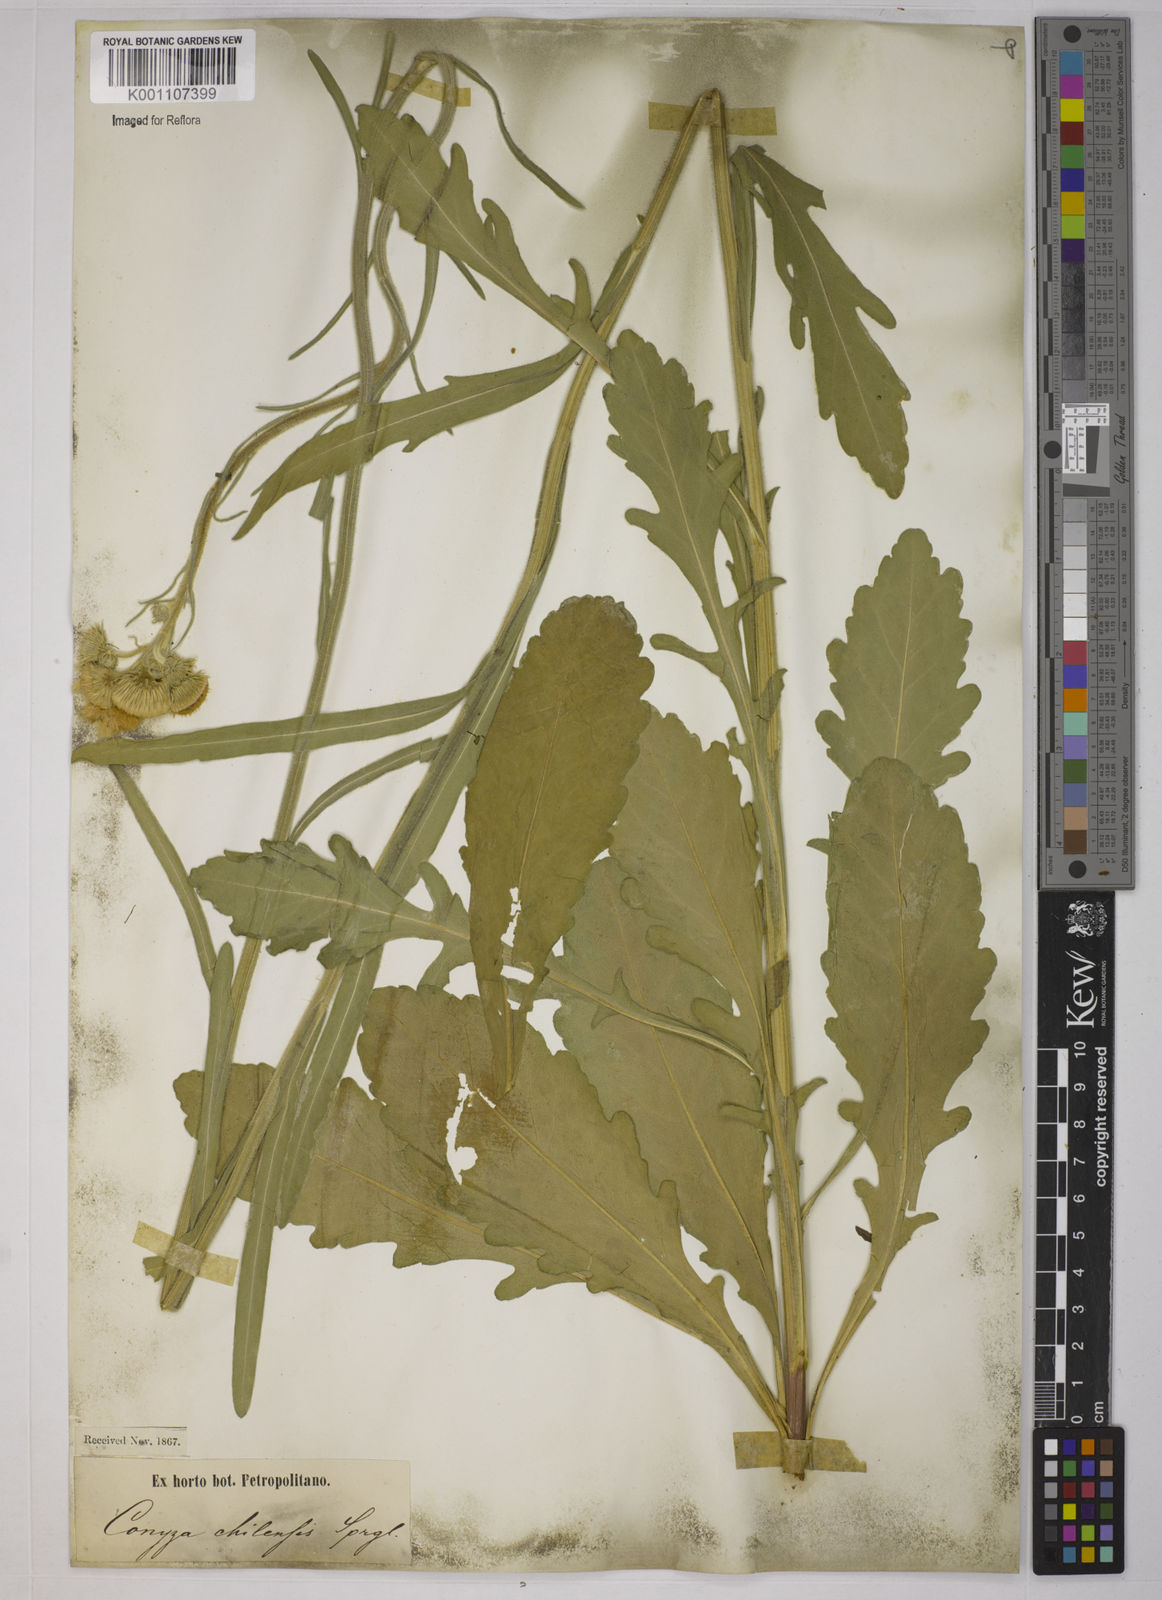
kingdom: Plantae
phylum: Tracheophyta
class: Magnoliopsida
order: Asterales
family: Asteraceae
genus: Erigeron
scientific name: Erigeron primulifolius
